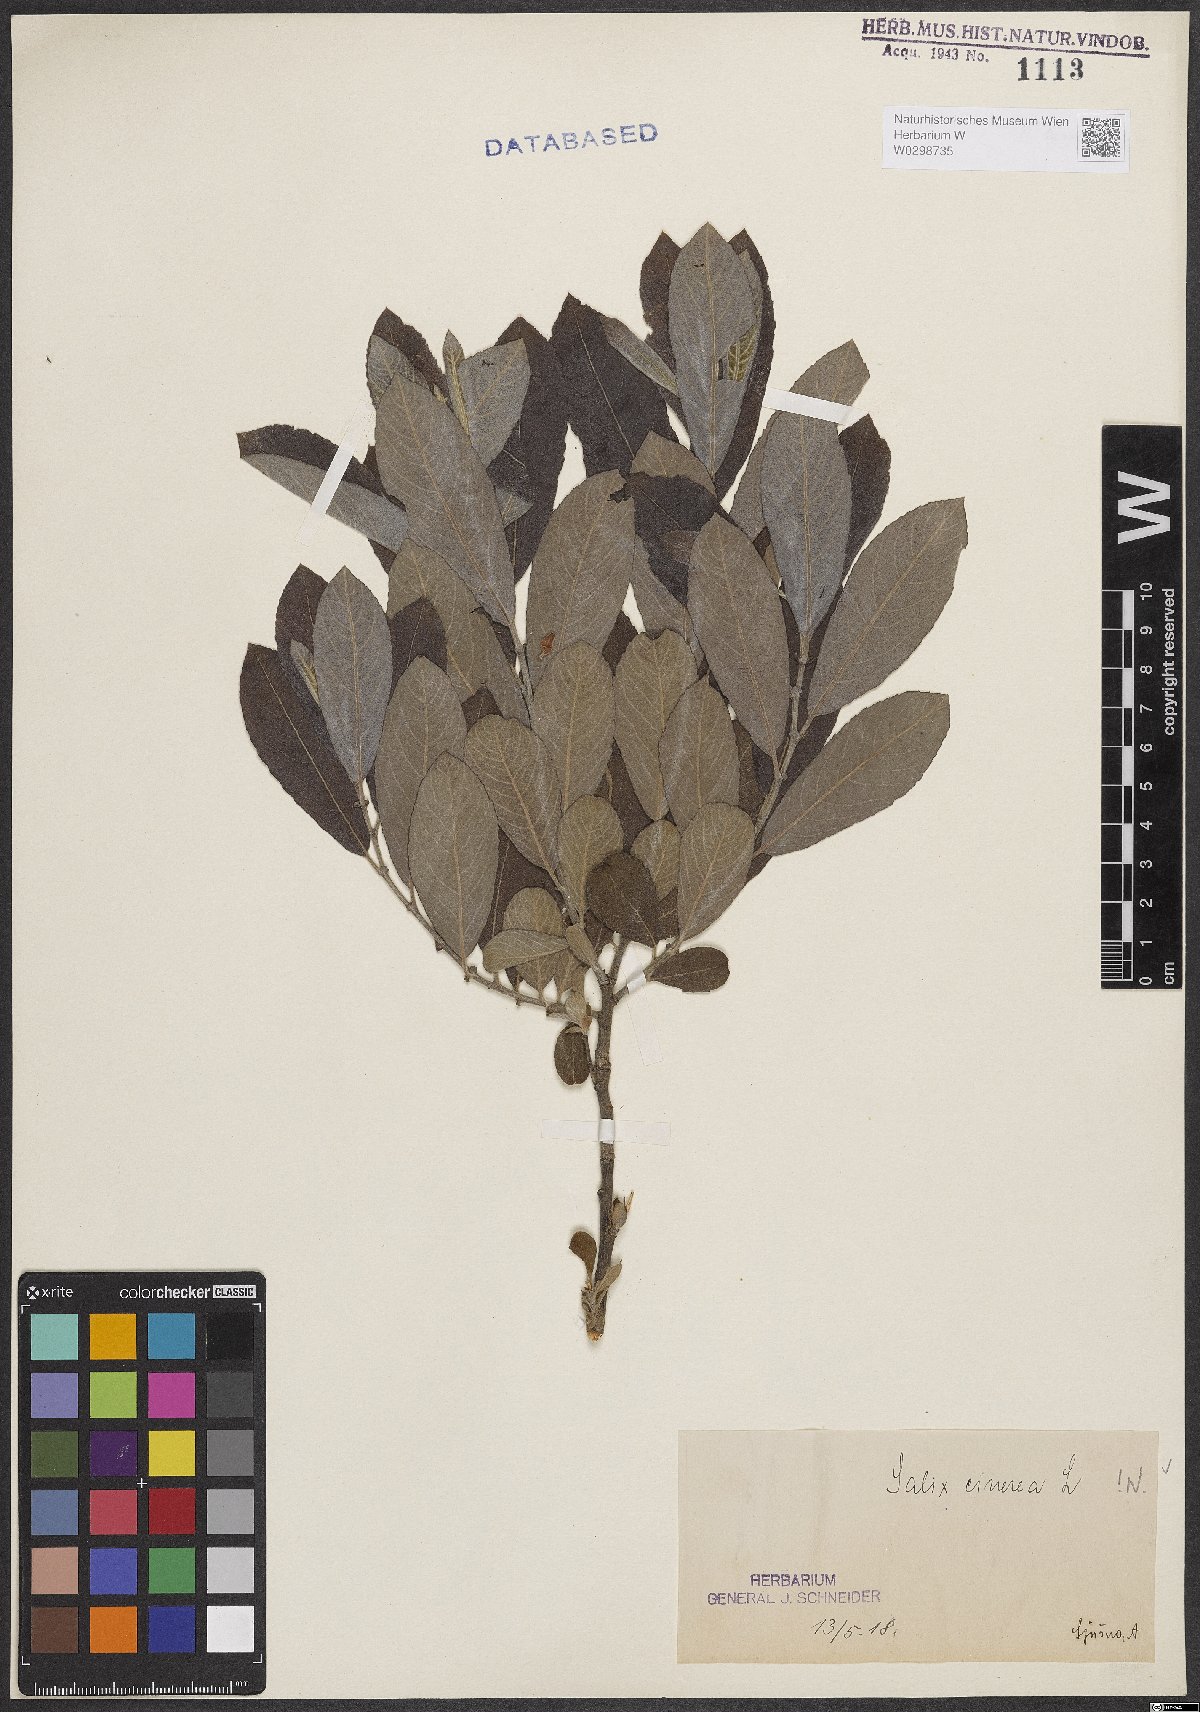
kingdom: Plantae
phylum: Tracheophyta
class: Magnoliopsida
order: Malpighiales
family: Salicaceae
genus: Salix
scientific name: Salix cinerea
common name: Common sallow
